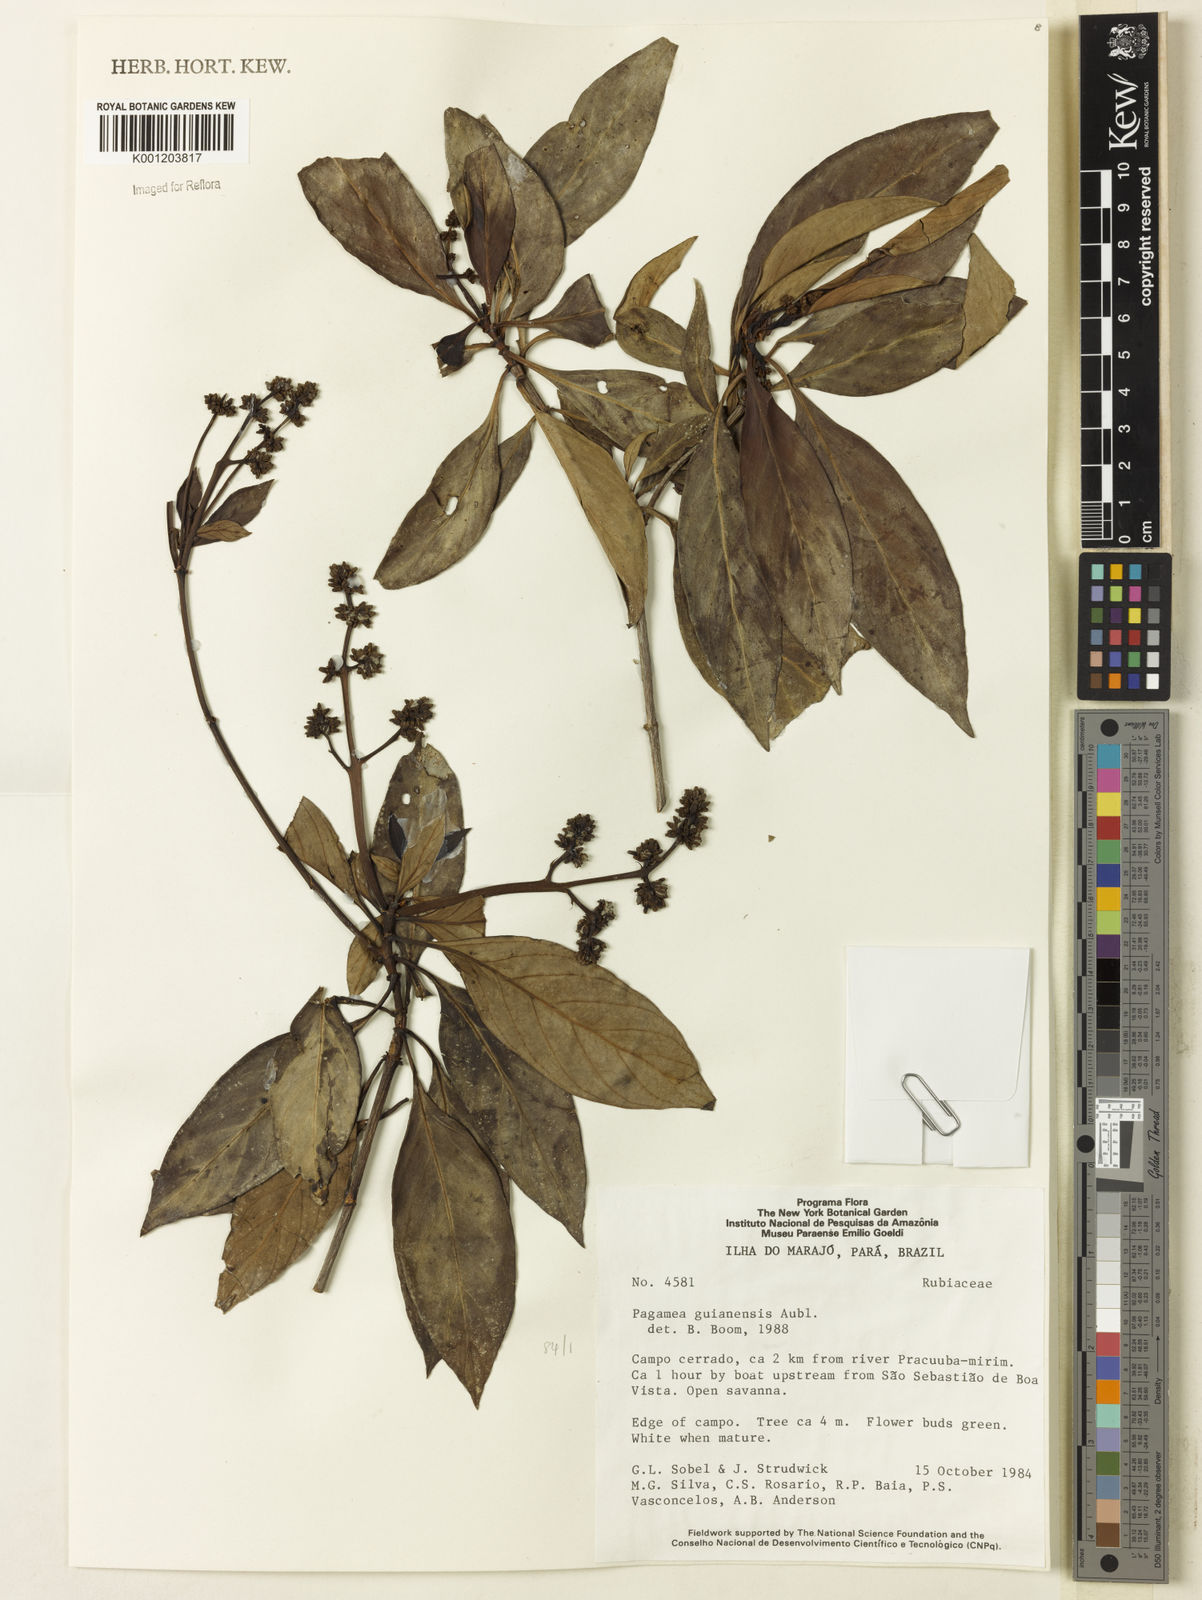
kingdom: Plantae
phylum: Tracheophyta
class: Magnoliopsida
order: Gentianales
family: Rubiaceae
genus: Pagamea
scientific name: Pagamea guianensis
